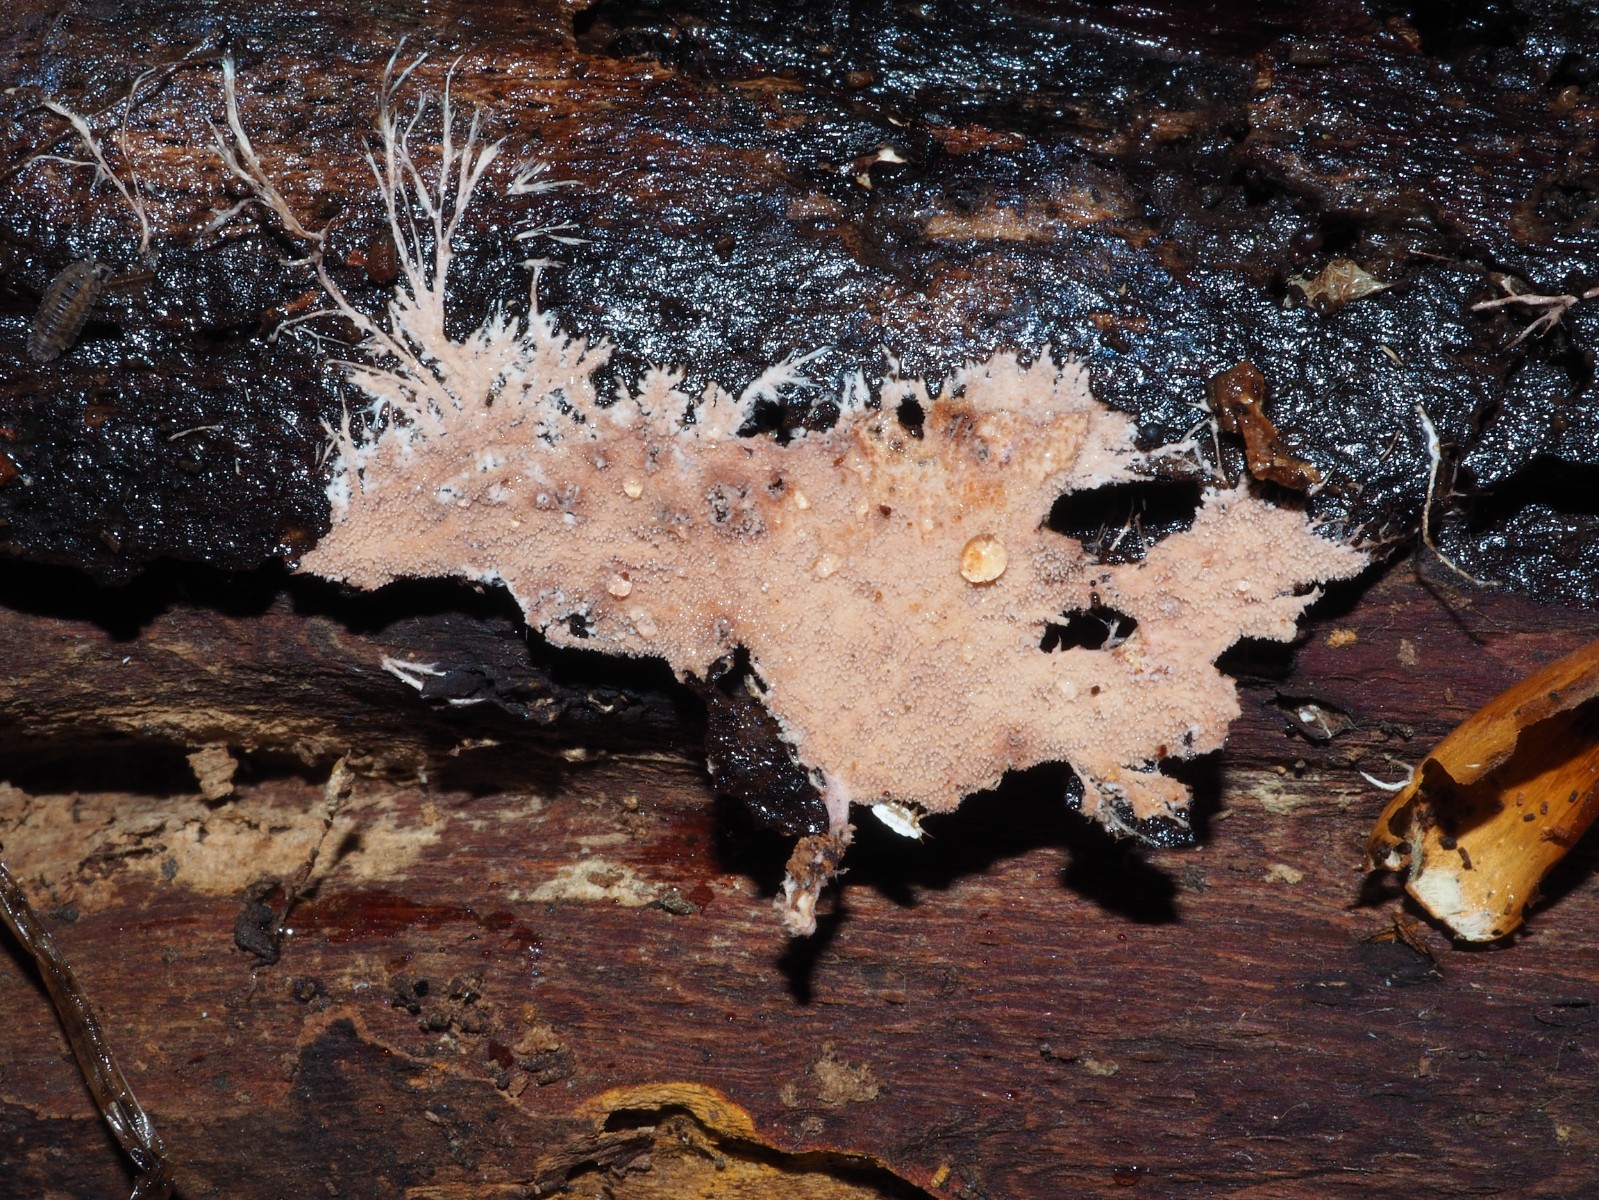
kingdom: Fungi
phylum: Basidiomycota
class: Agaricomycetes
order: Polyporales
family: Steccherinaceae
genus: Steccherinum
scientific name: Steccherinum fimbriatum
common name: trådet skønpig
